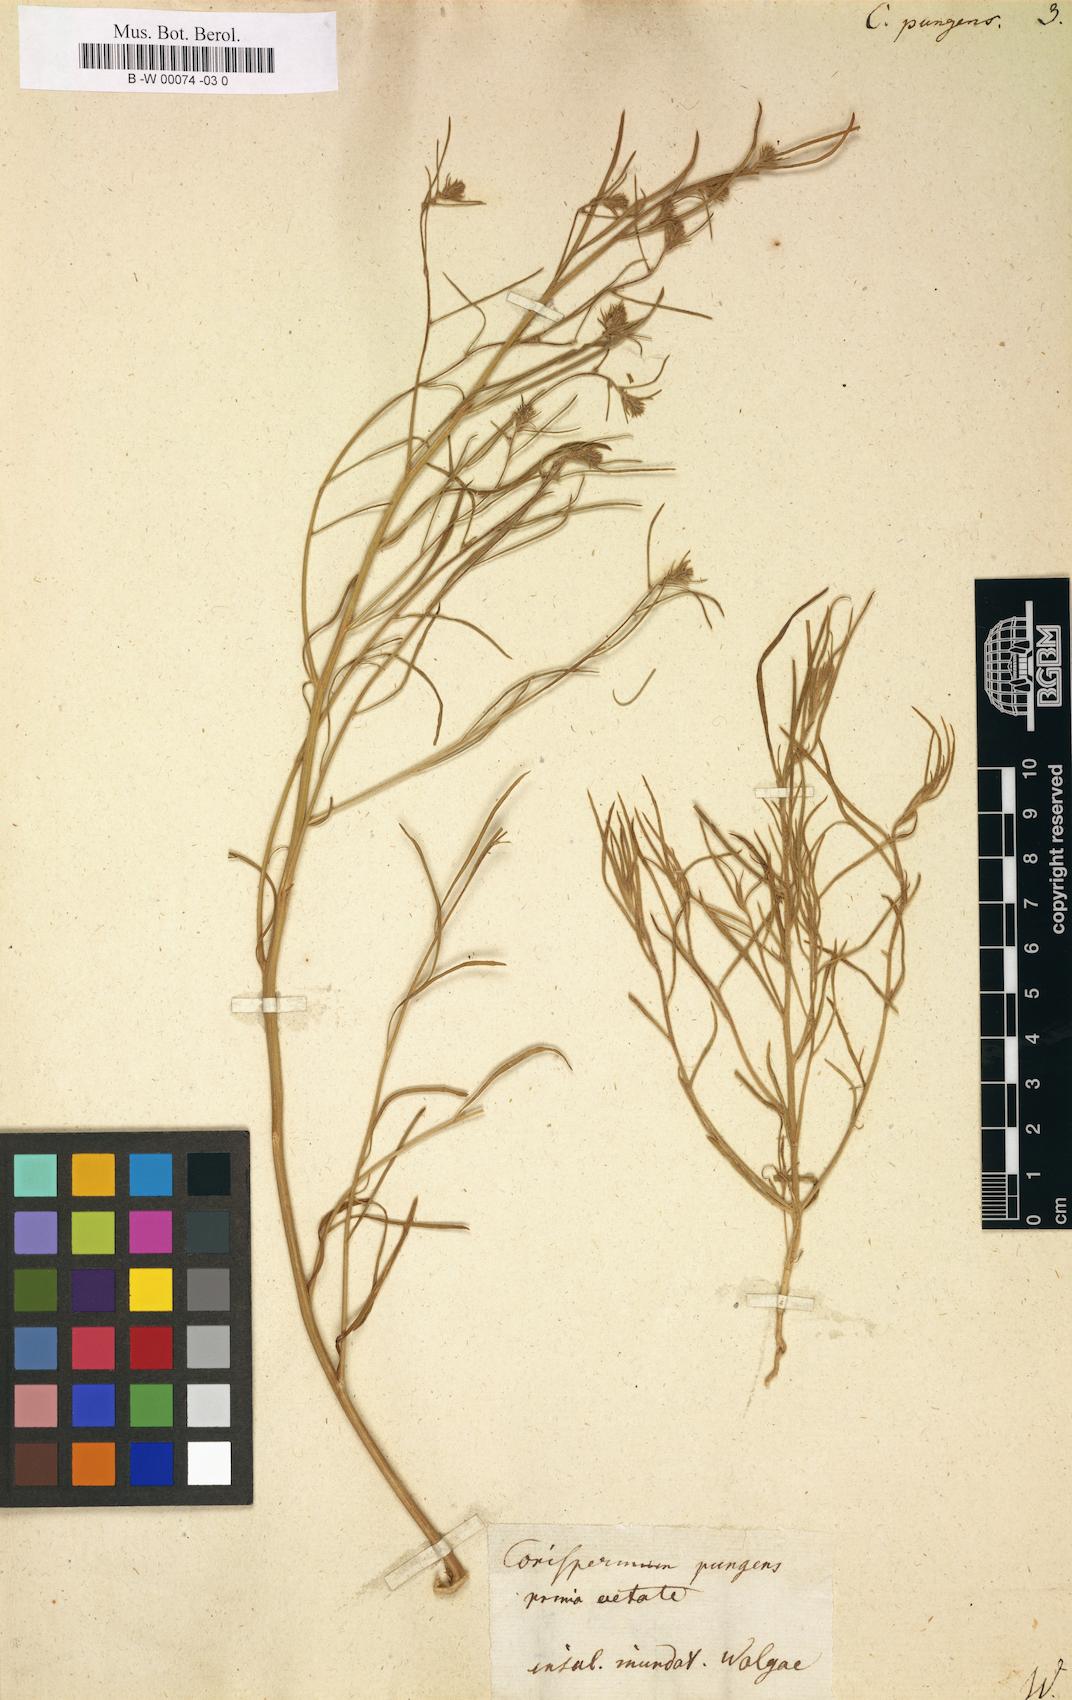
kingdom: Plantae
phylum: Tracheophyta
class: Magnoliopsida
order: Caryophyllales
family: Amaranthaceae
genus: Agriophyllum
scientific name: Agriophyllum pungens
